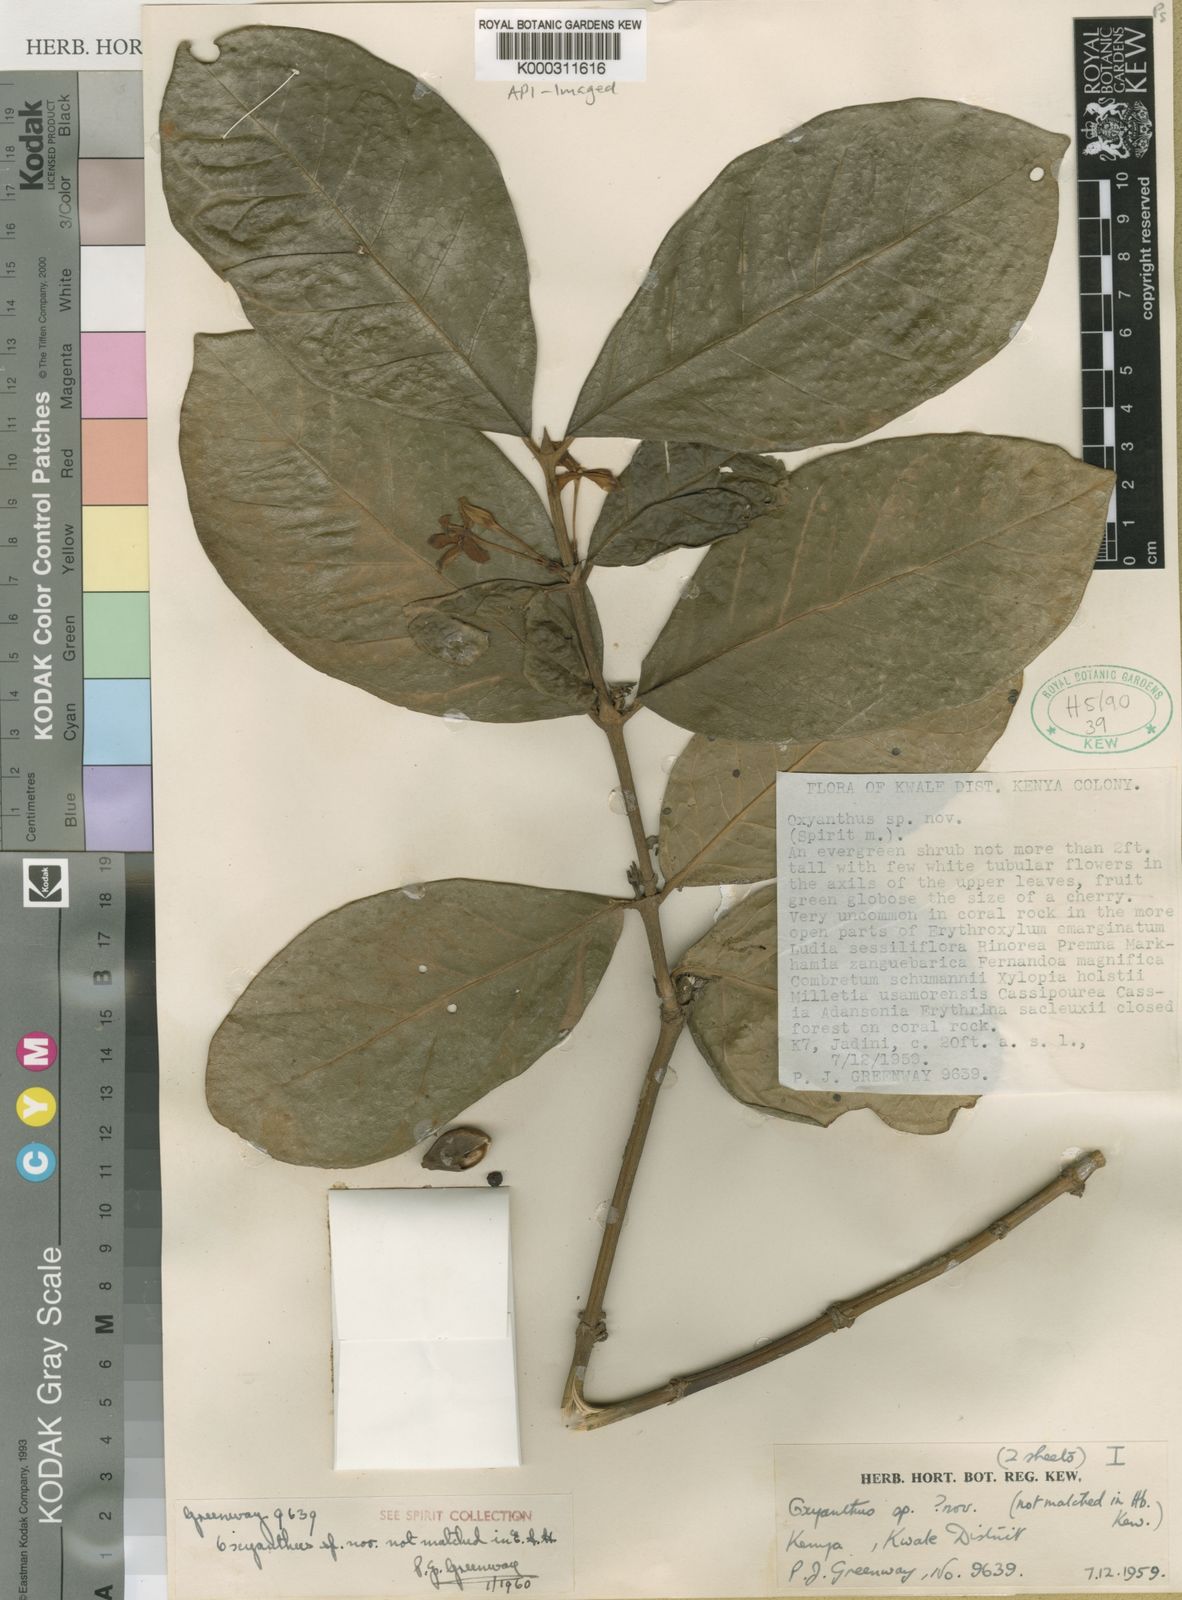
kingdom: Plantae
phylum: Tracheophyta
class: Magnoliopsida
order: Gentianales
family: Rubiaceae
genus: Mitriostigma
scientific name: Mitriostigma greenwayi
